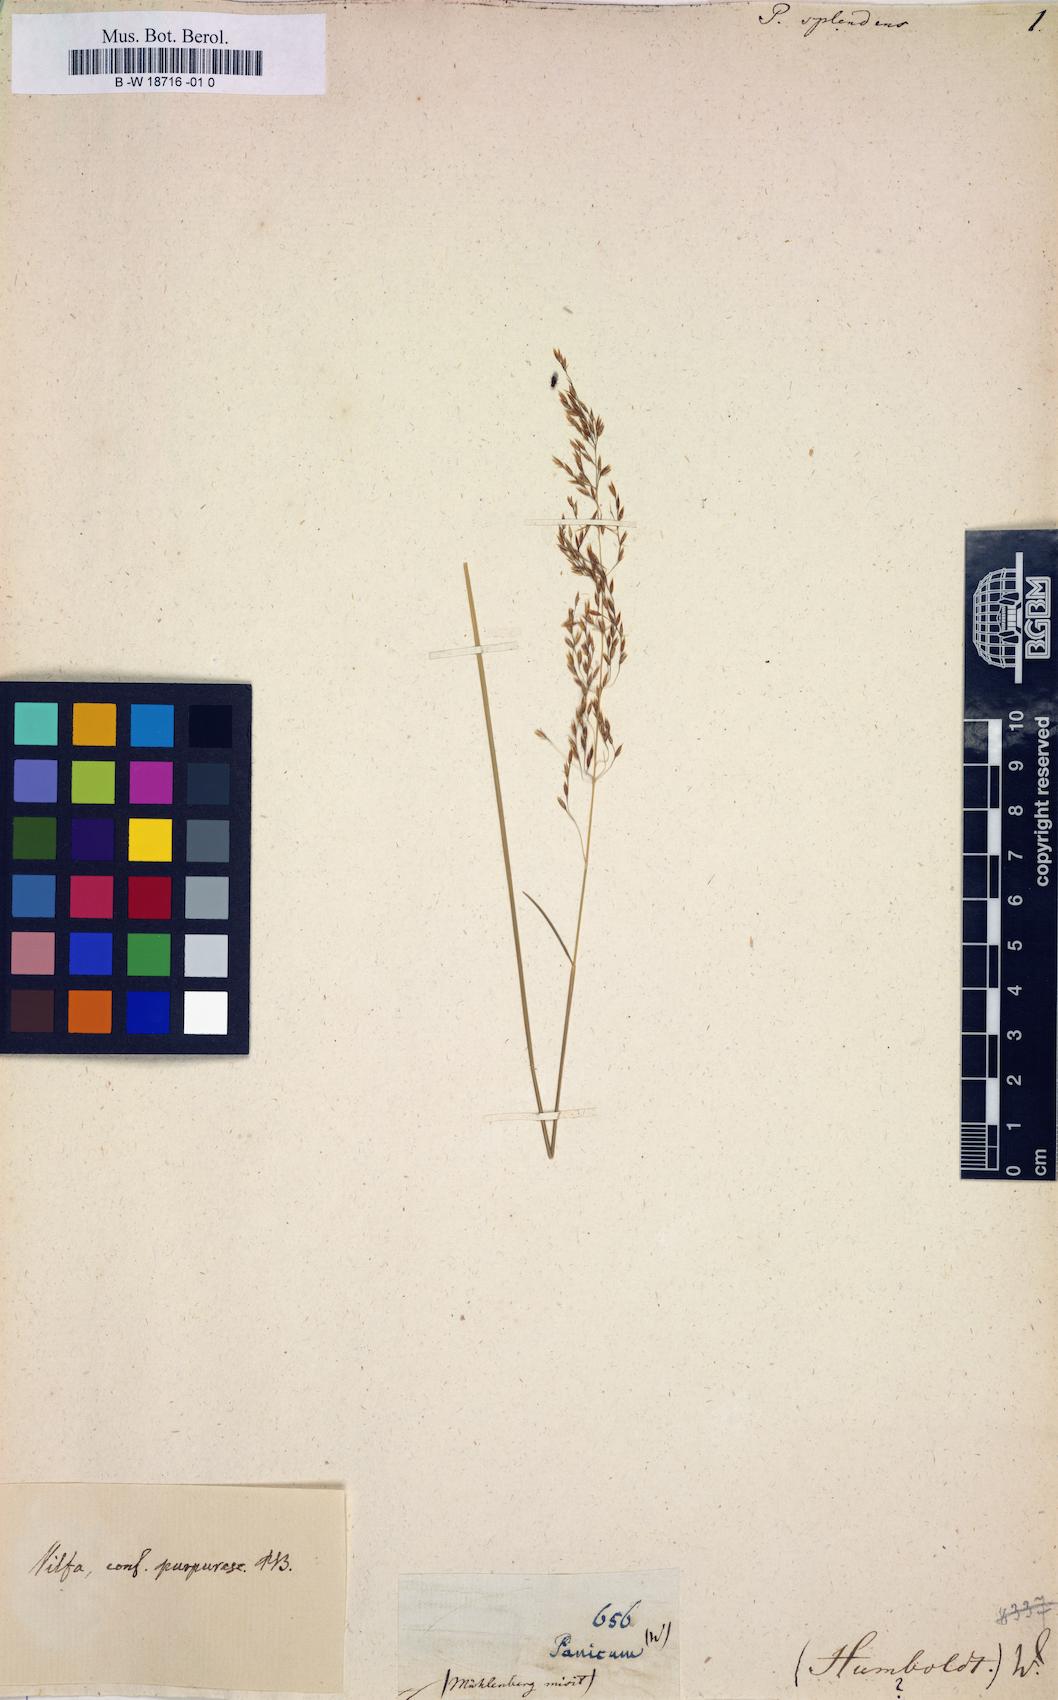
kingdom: Plantae
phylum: Tracheophyta
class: Liliopsida
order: Poales
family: Poaceae
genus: Panicum
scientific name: Panicum
